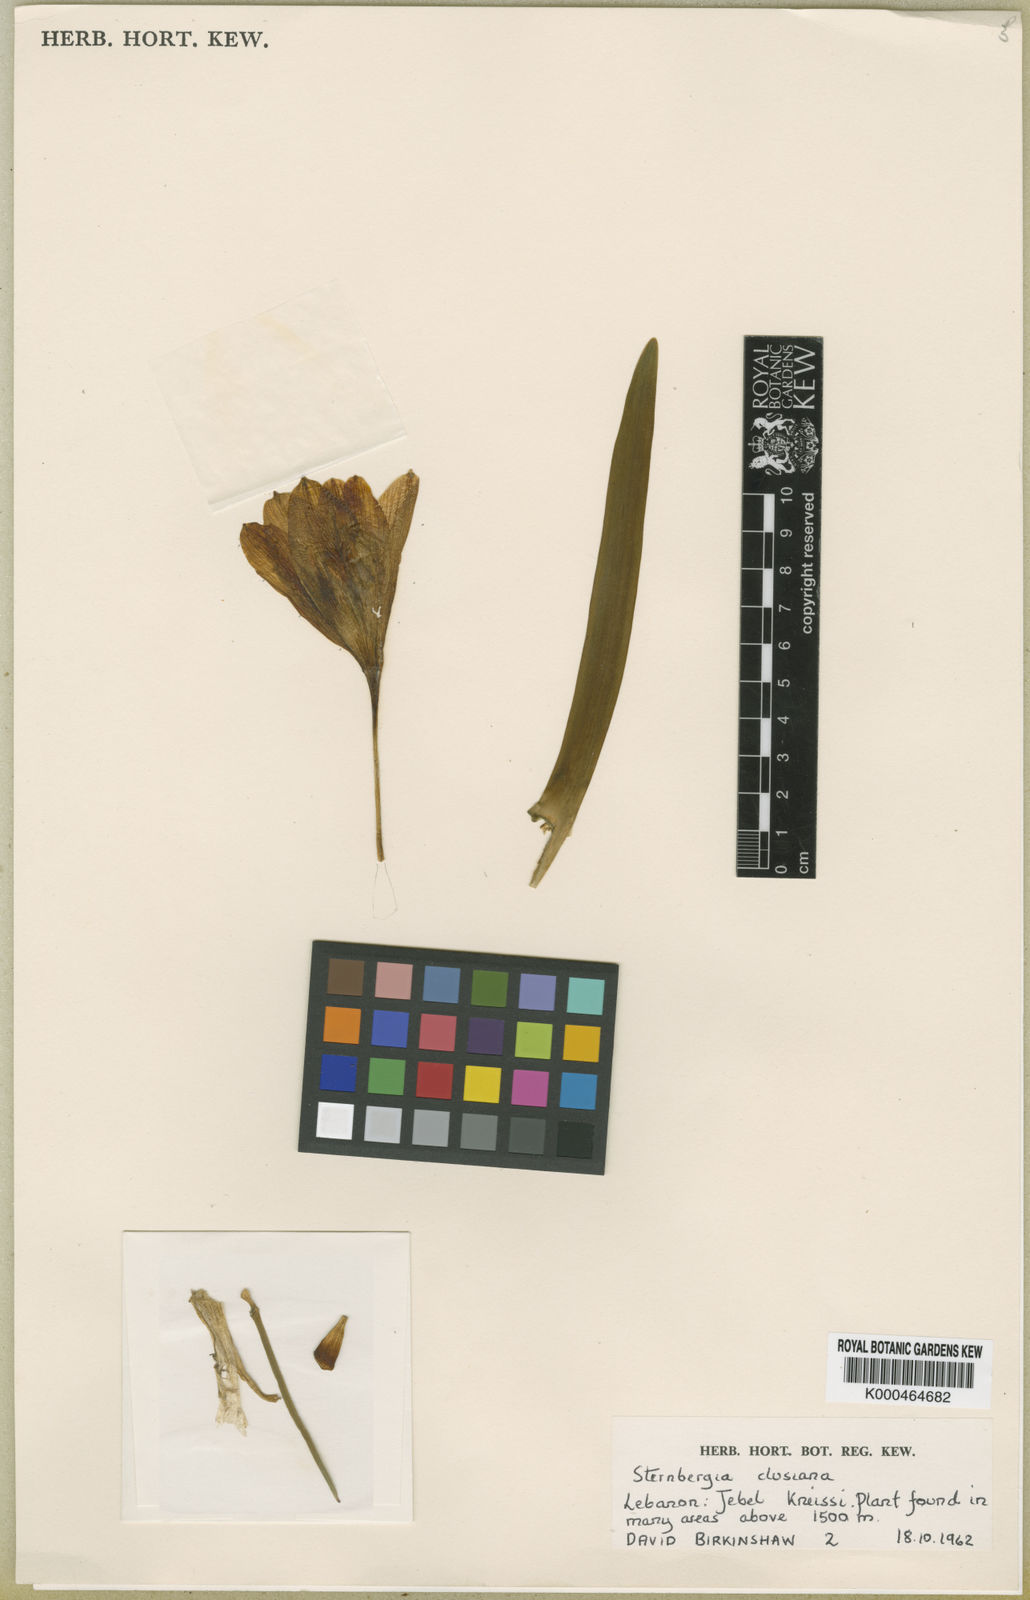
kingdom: Plantae
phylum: Tracheophyta
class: Liliopsida
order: Asparagales
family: Amaryllidaceae
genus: Sternbergia
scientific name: Sternbergia
